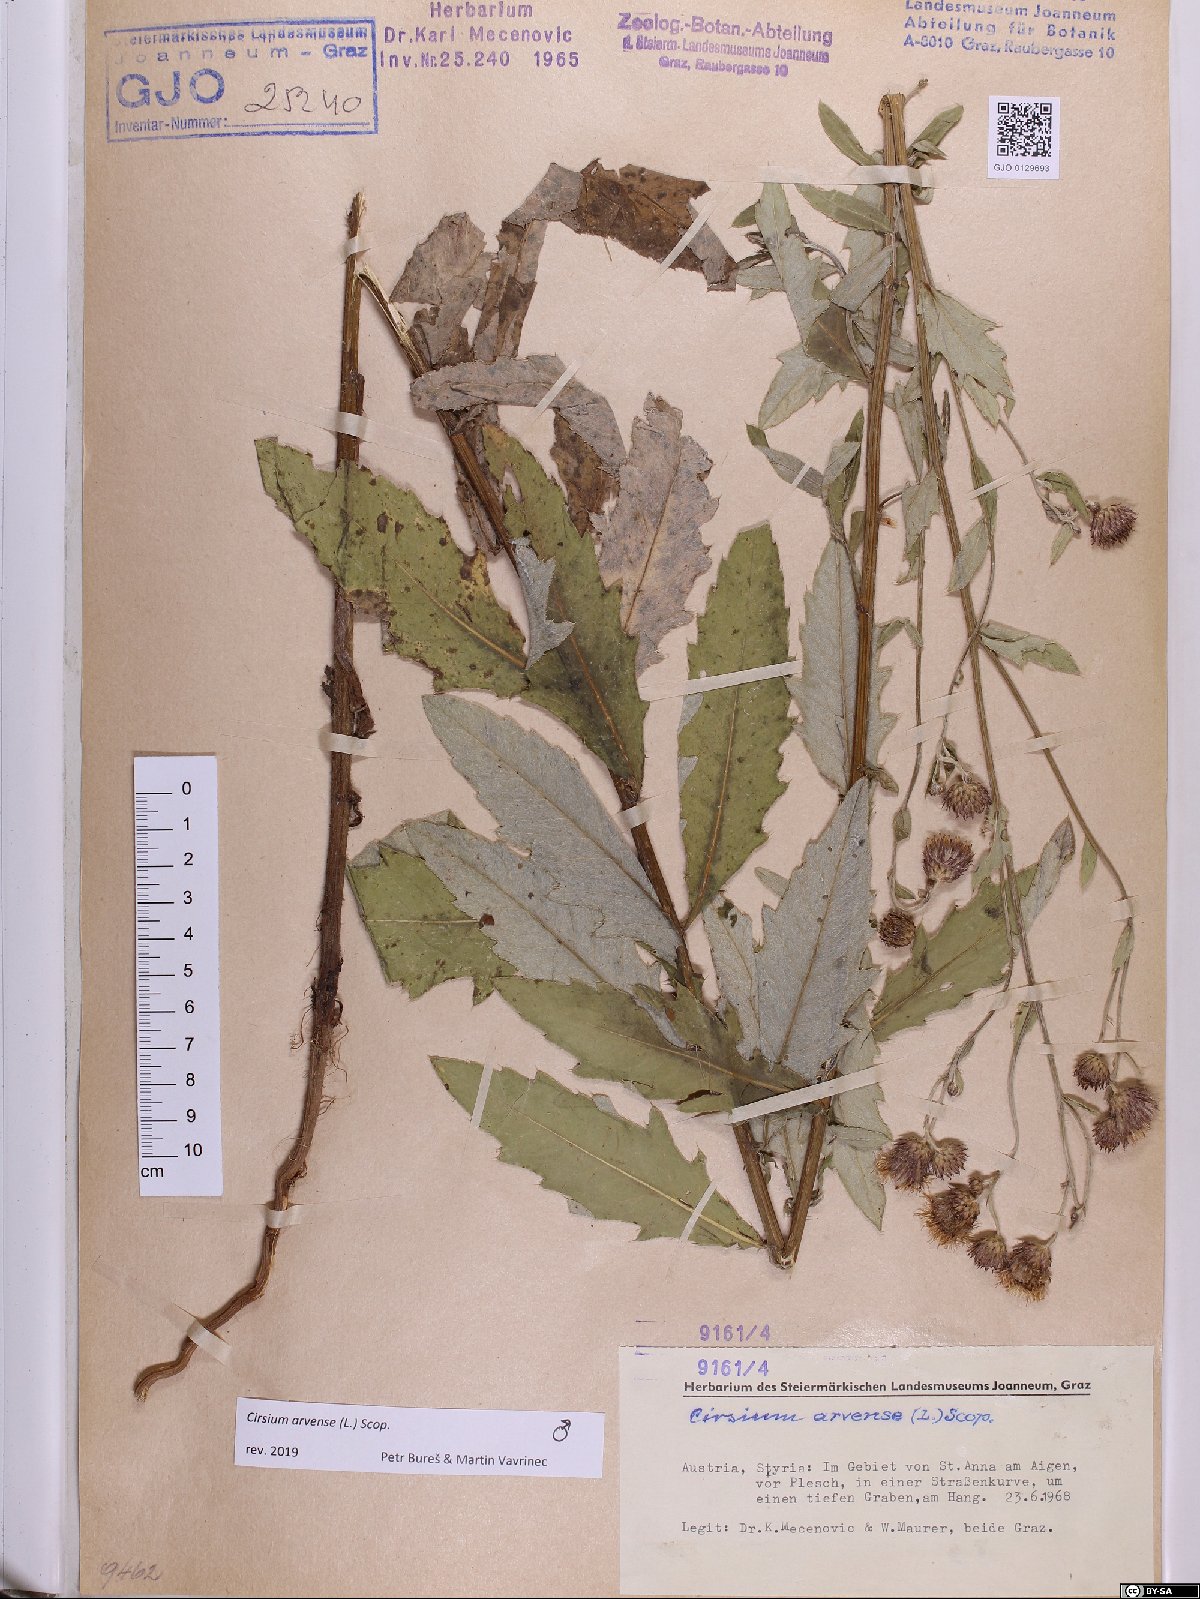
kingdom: Plantae
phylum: Tracheophyta
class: Magnoliopsida
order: Asterales
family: Asteraceae
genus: Cirsium
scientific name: Cirsium arvense
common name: Creeping thistle
